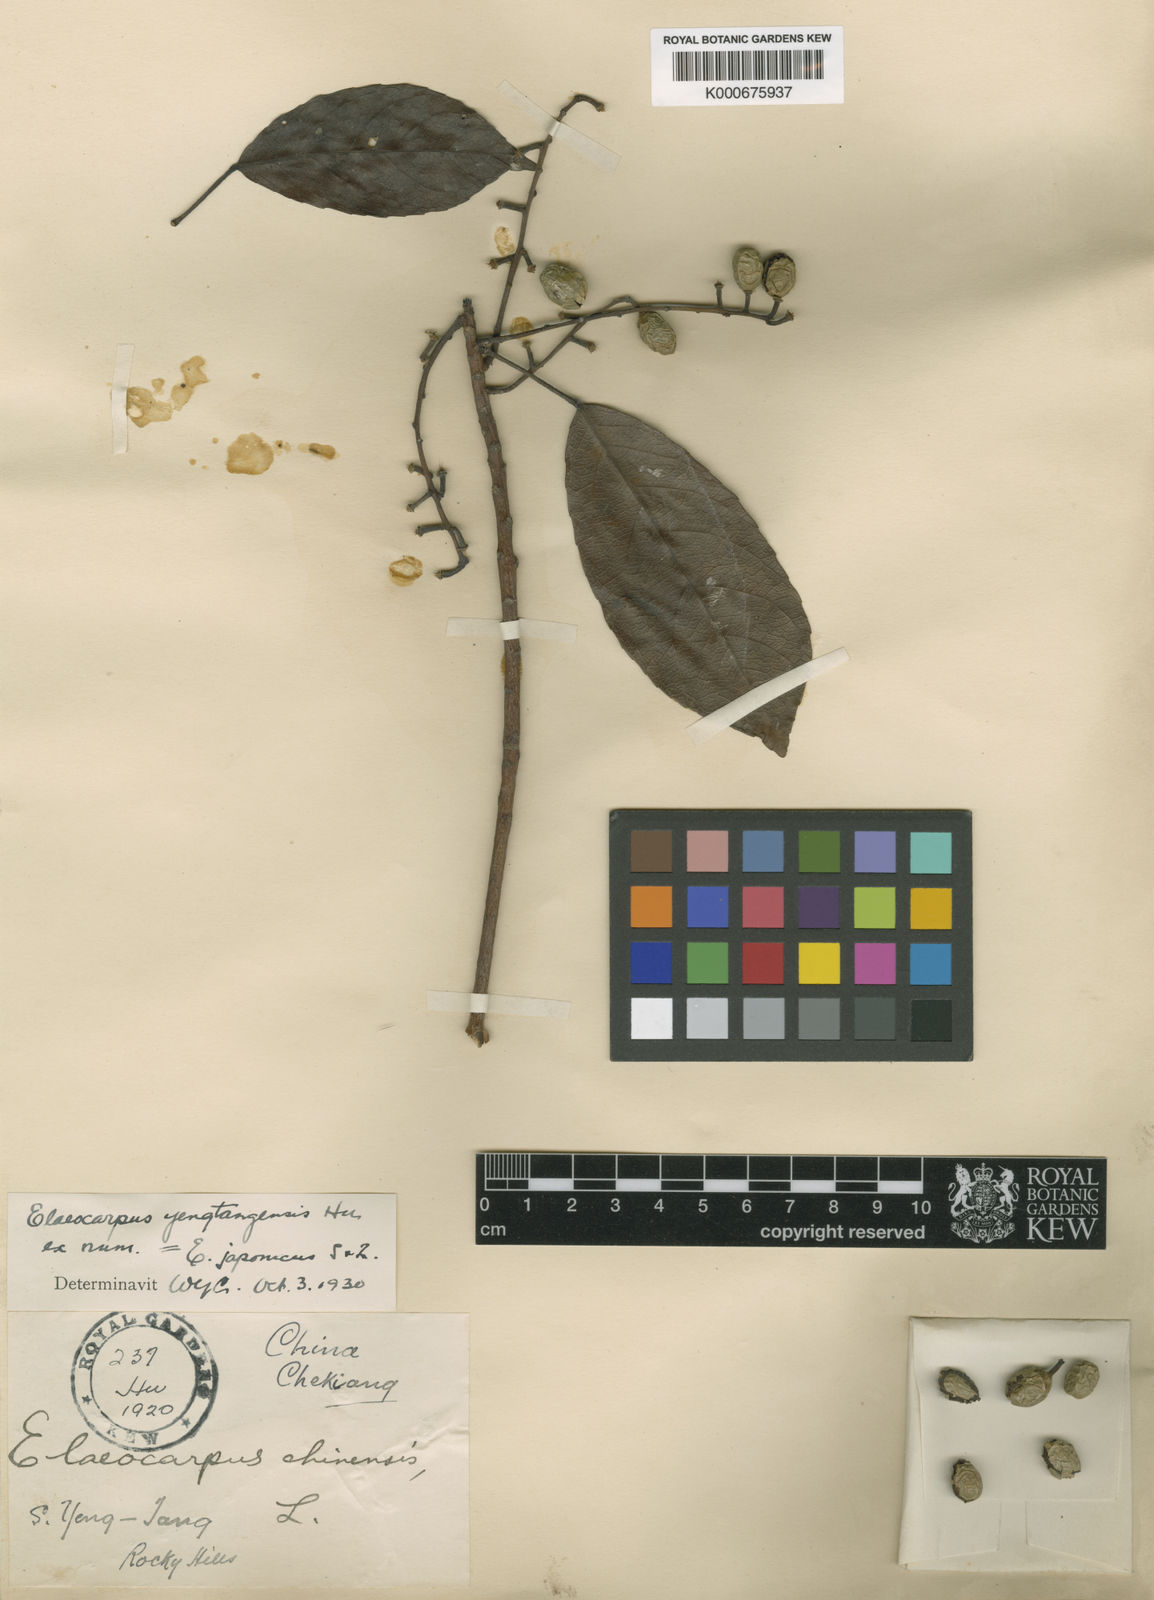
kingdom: Plantae
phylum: Tracheophyta
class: Magnoliopsida
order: Oxalidales
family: Elaeocarpaceae
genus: Elaeocarpus
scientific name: Elaeocarpus japonicus
